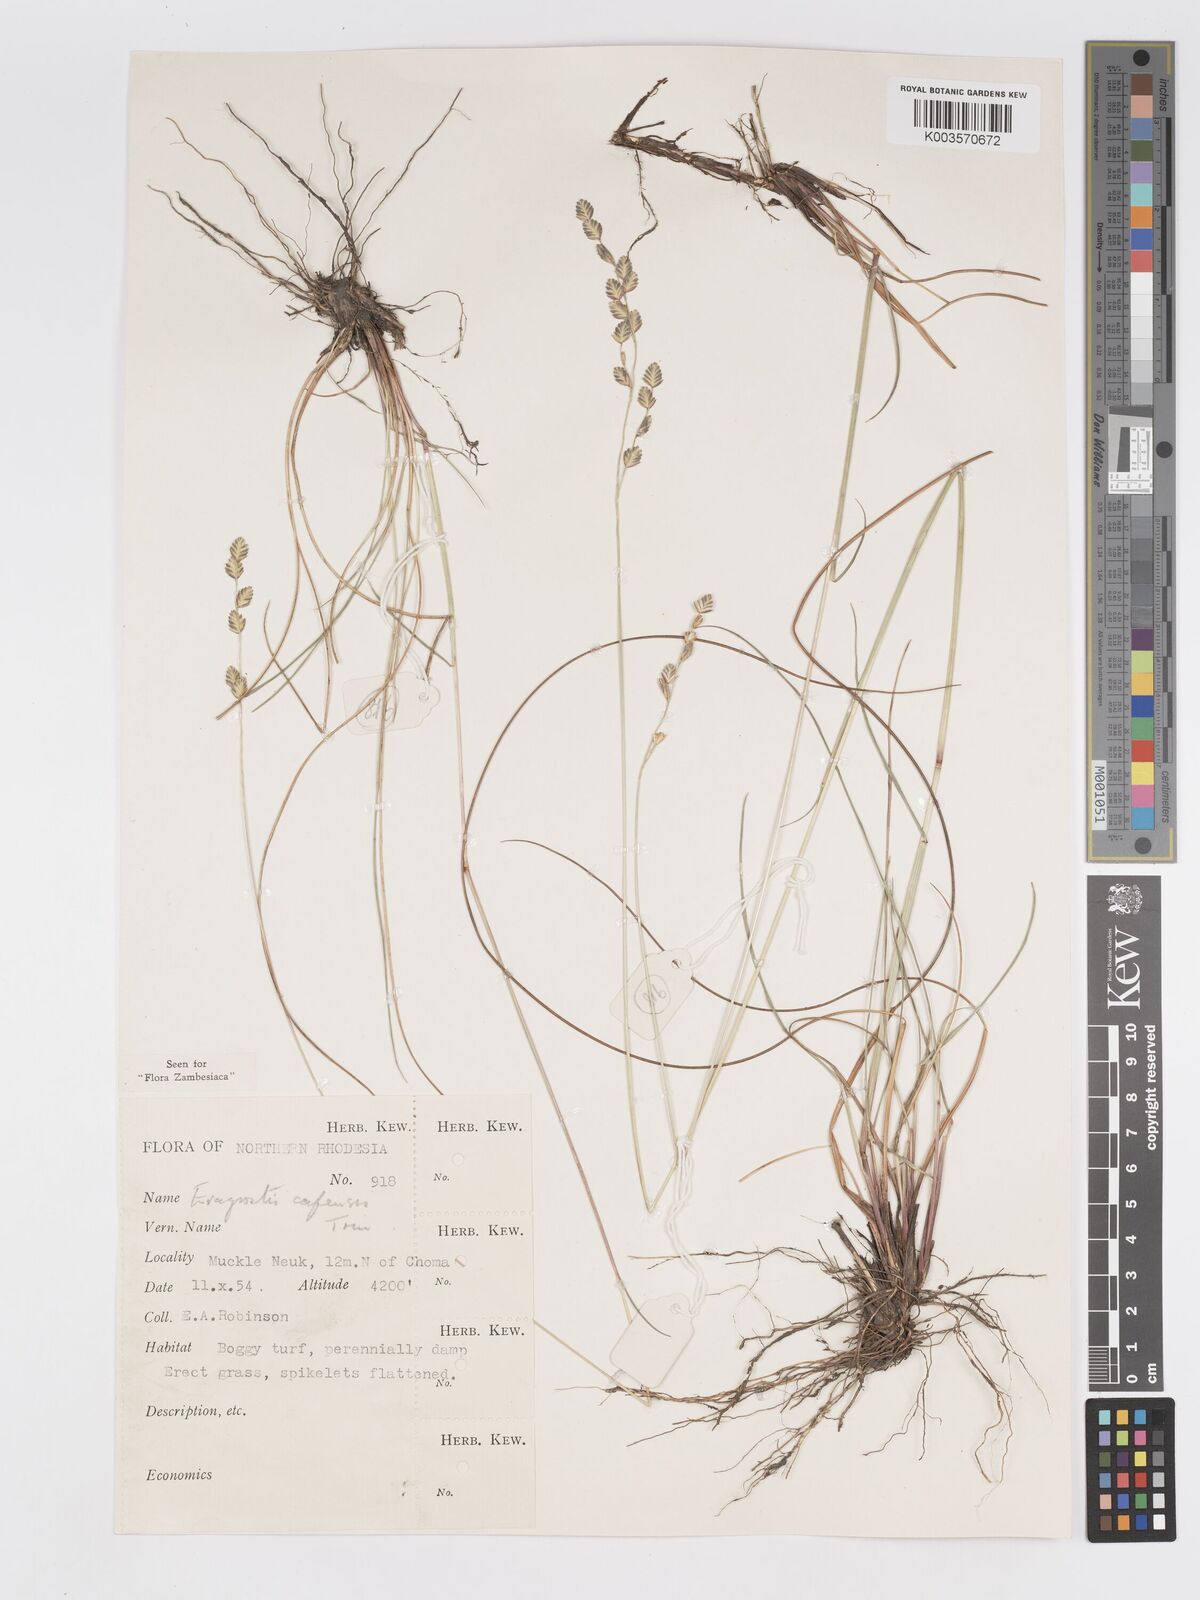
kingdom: Plantae
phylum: Tracheophyta
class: Liliopsida
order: Poales
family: Poaceae
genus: Eragrostis
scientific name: Eragrostis capensis
